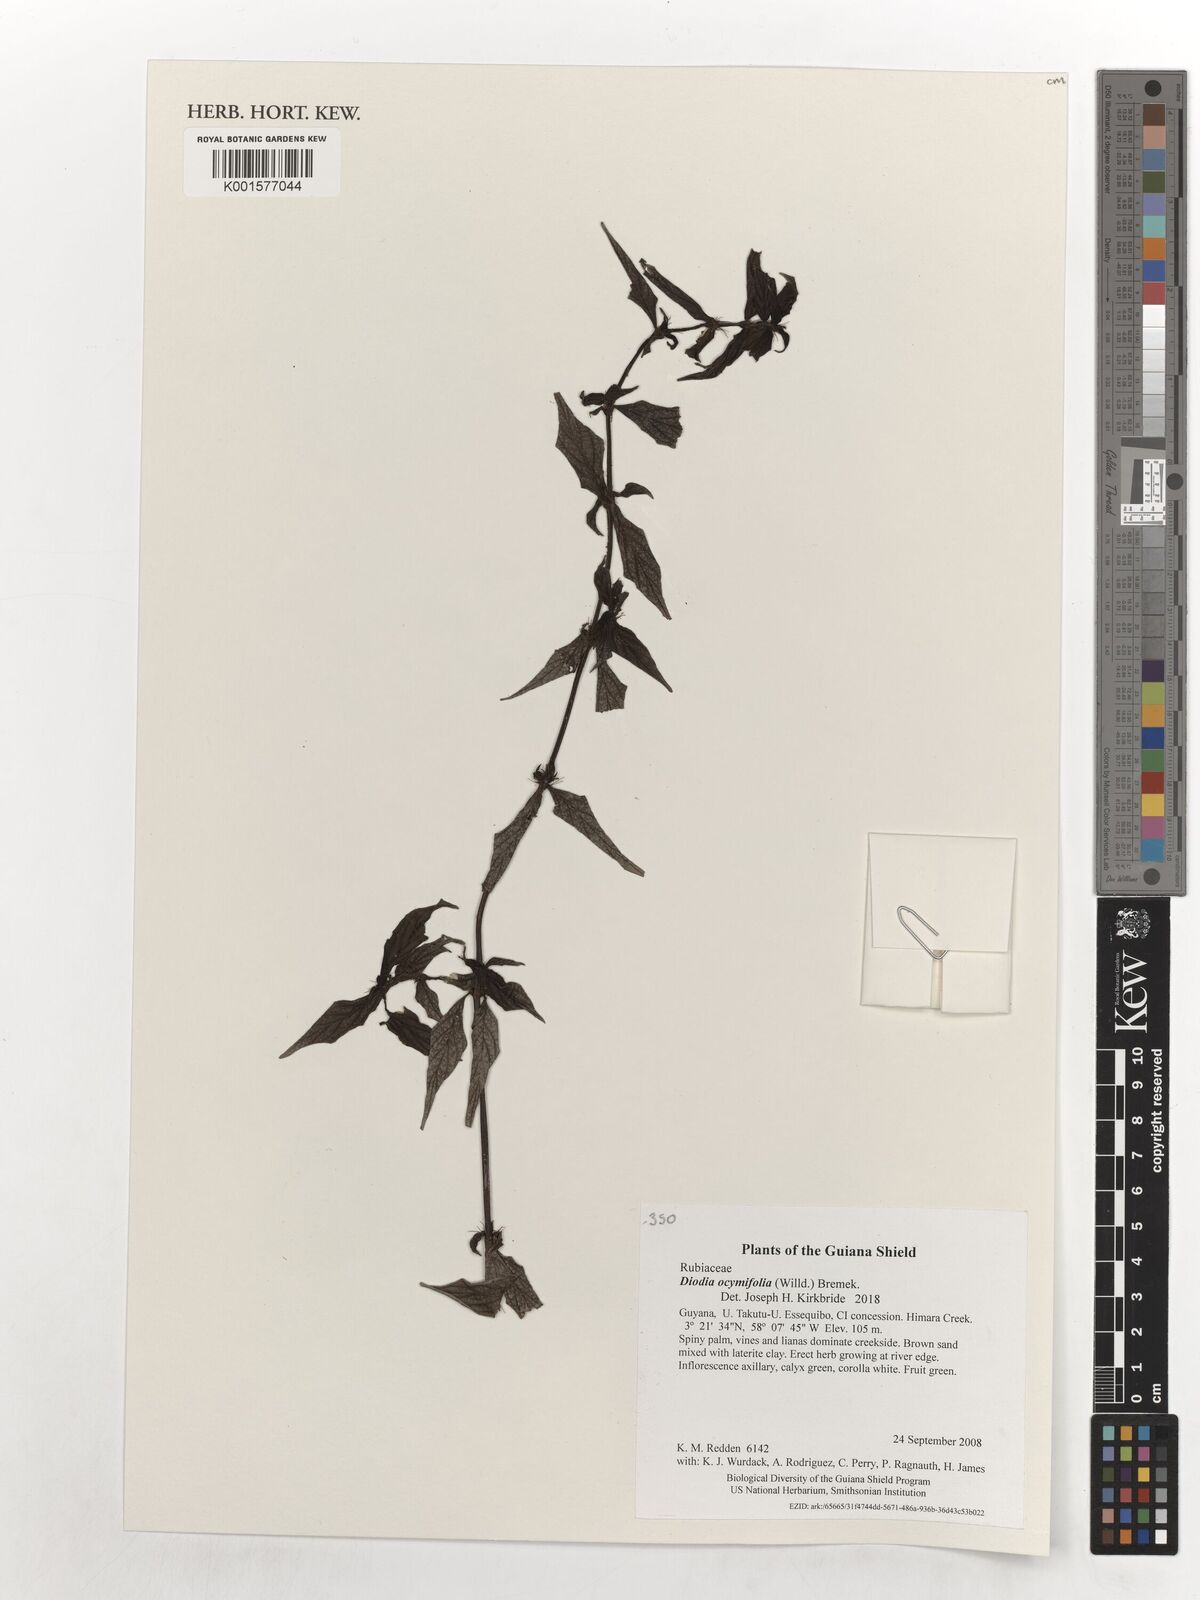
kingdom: Plantae
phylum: Tracheophyta
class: Magnoliopsida
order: Gentianales
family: Rubiaceae
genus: Spermacoce
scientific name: Spermacoce ocymifolia
